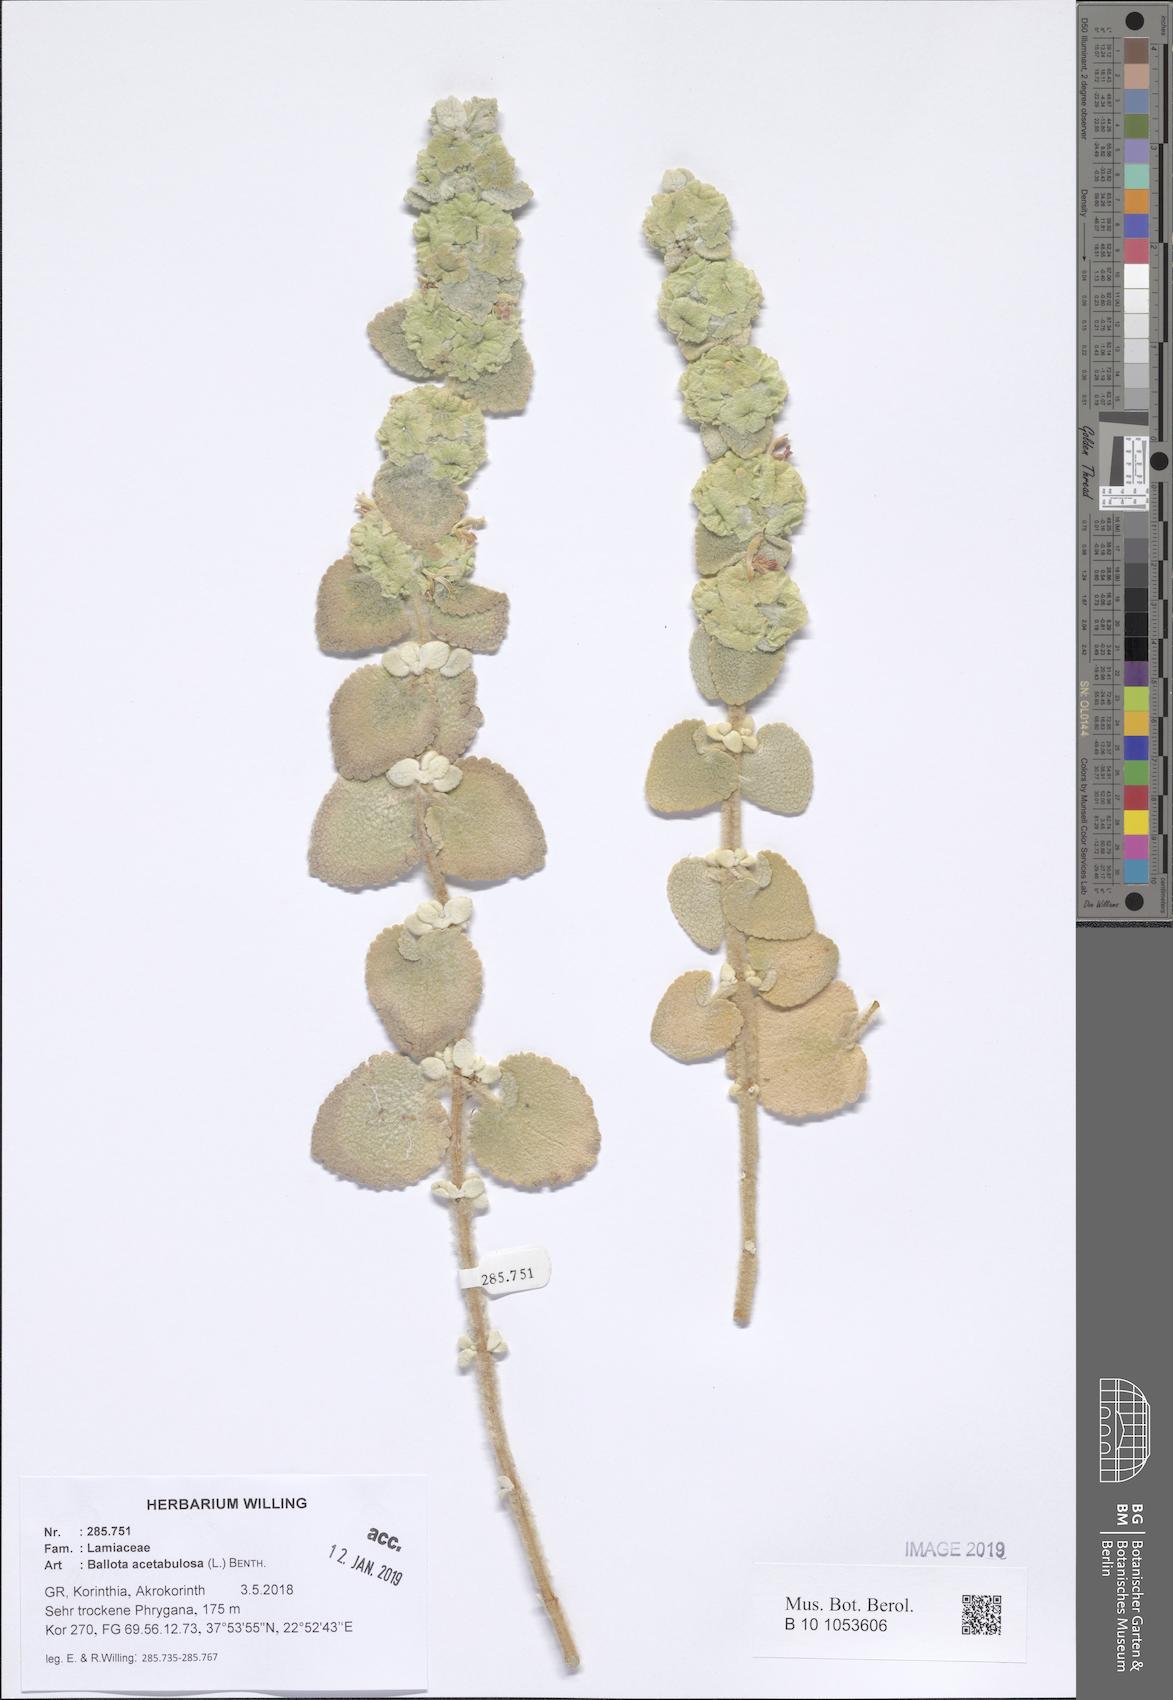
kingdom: Plantae
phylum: Tracheophyta
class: Magnoliopsida
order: Lamiales
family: Lamiaceae
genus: Pseudodictamnus
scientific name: Pseudodictamnus acetabulosus
